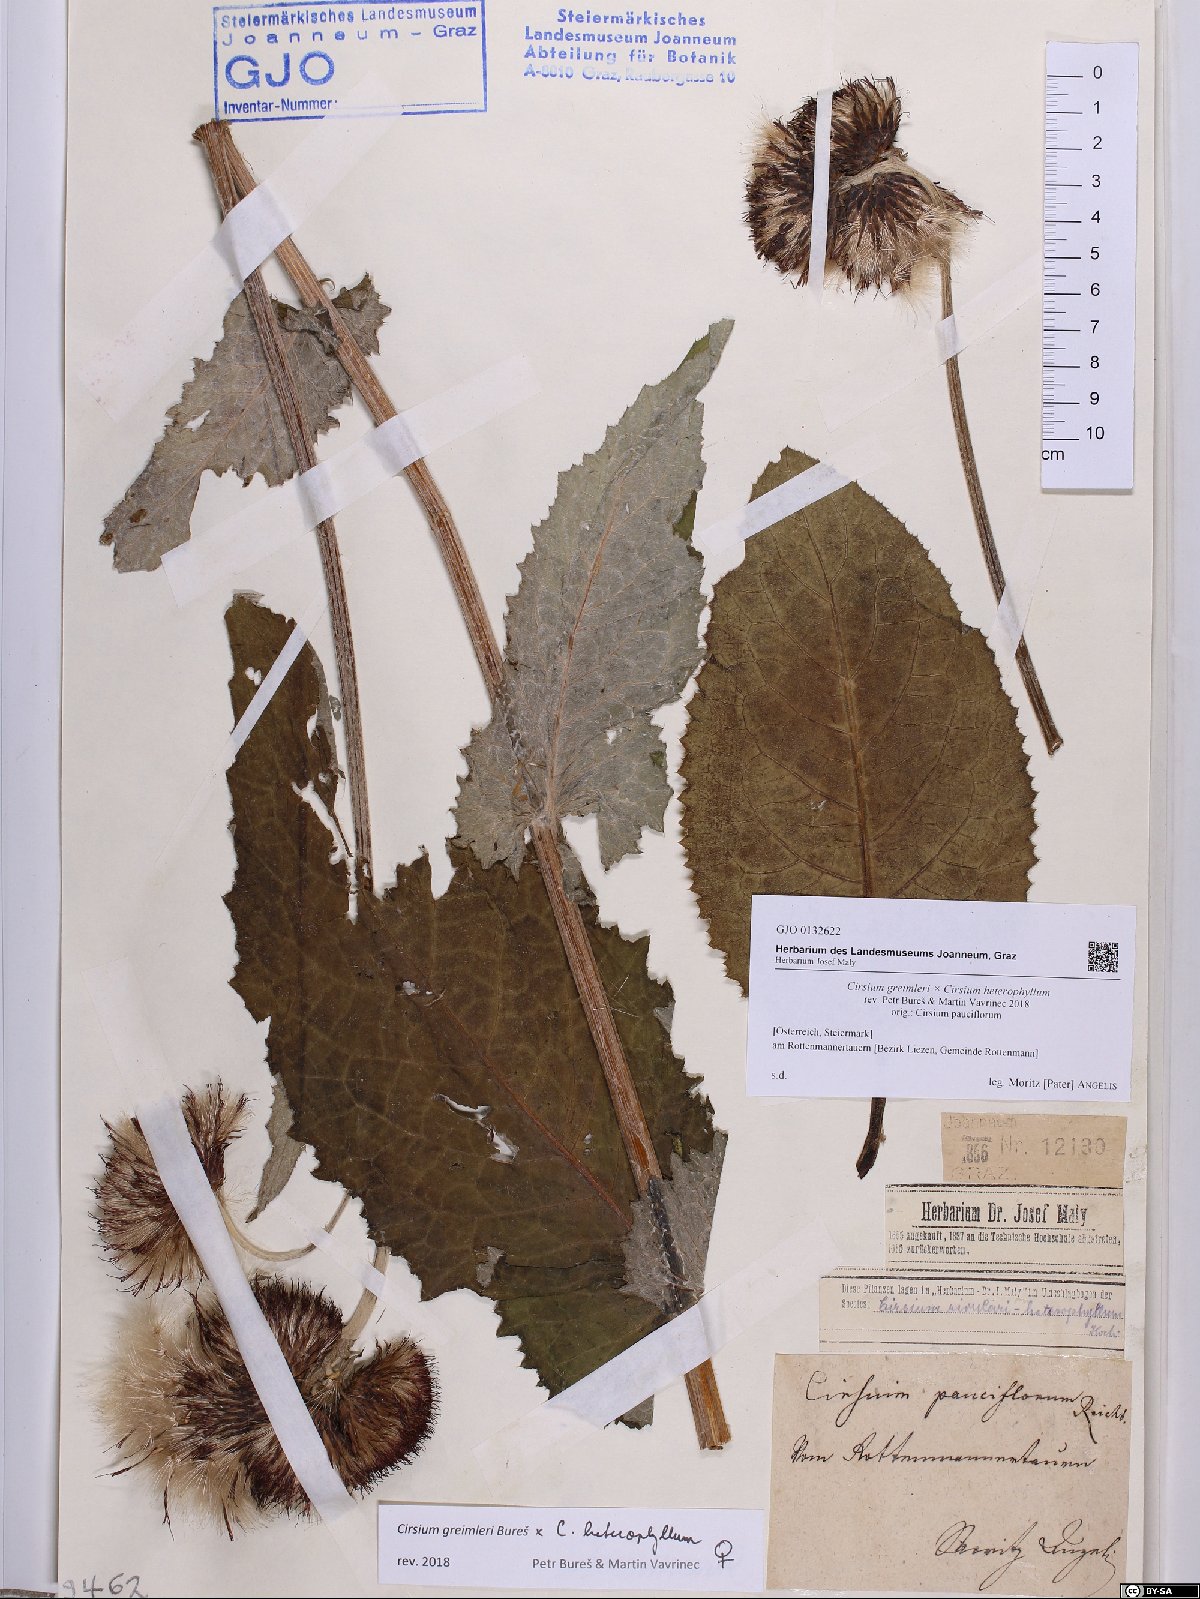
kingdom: Plantae
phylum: Tracheophyta
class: Magnoliopsida
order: Asterales
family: Asteraceae
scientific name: Asteraceae
